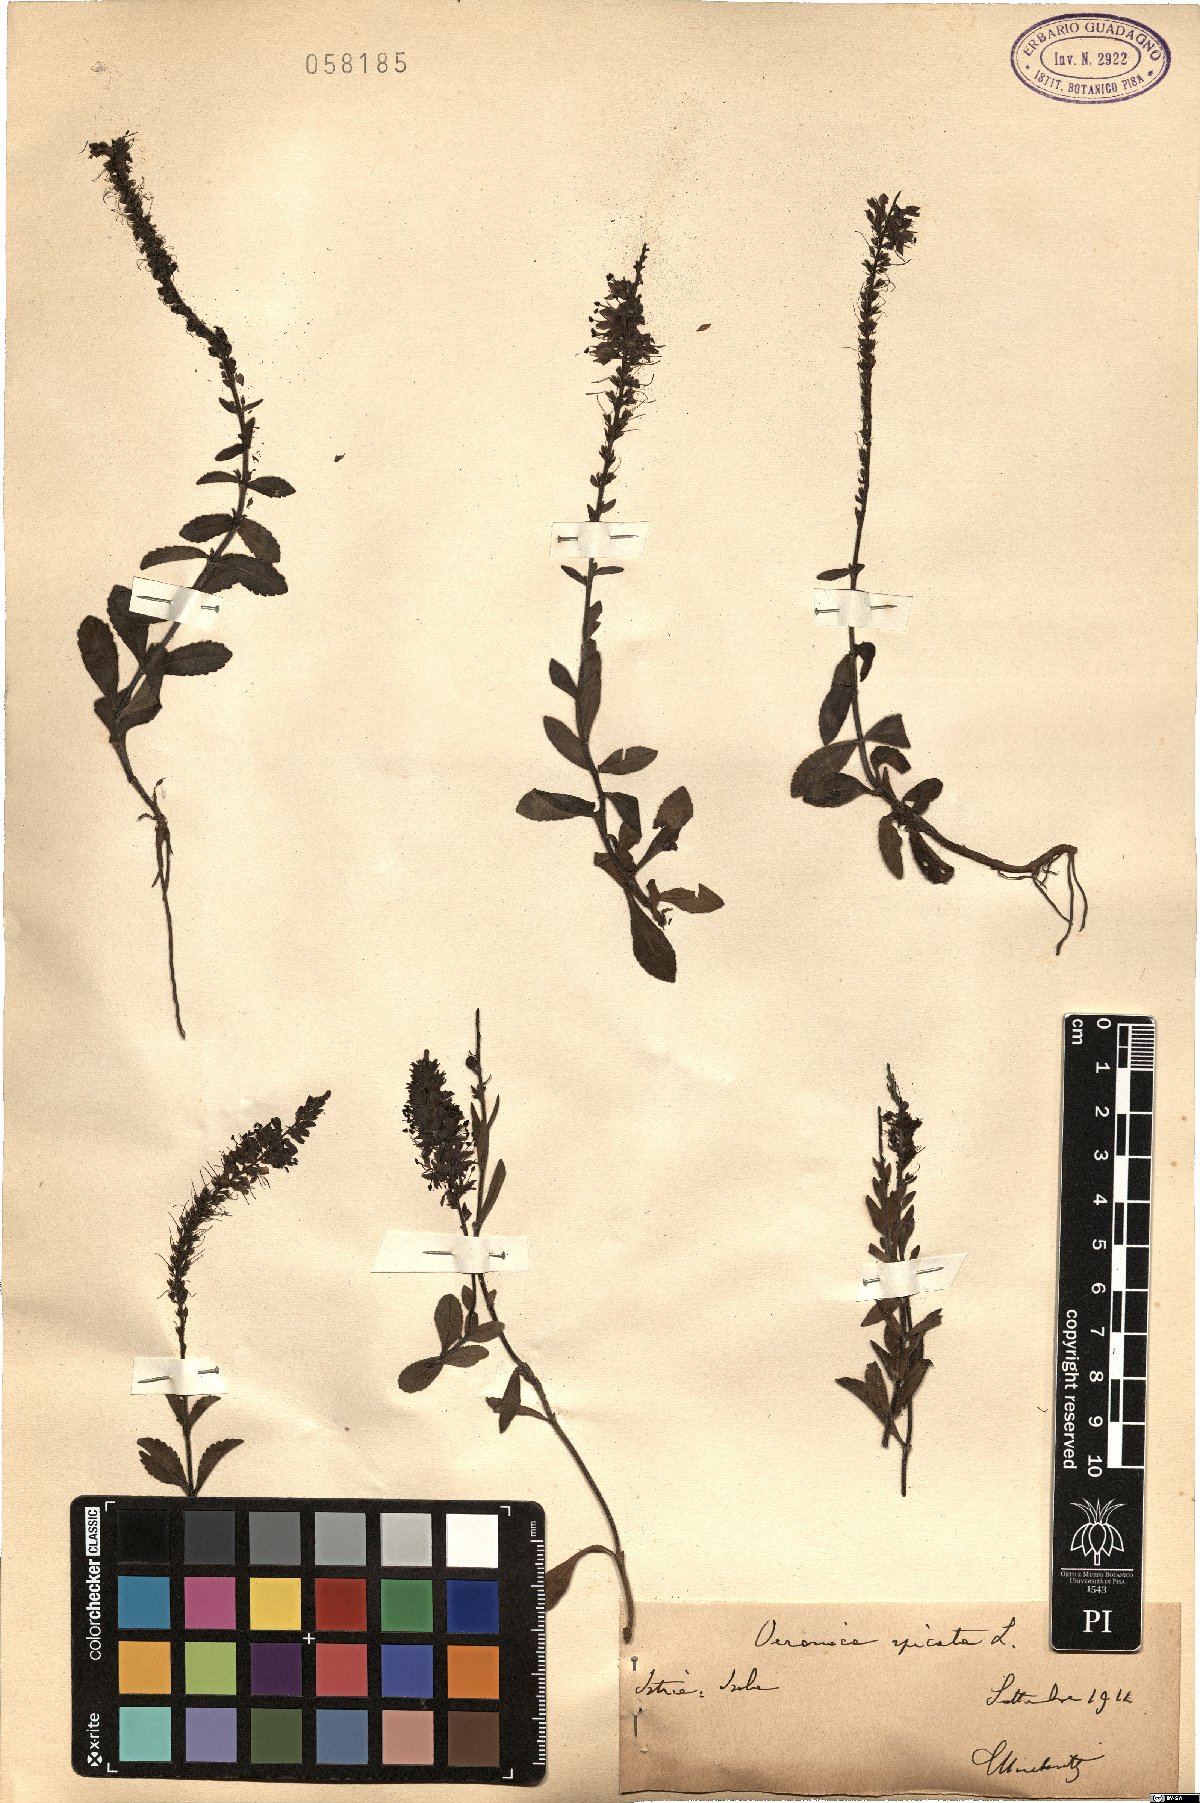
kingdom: Plantae
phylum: Tracheophyta
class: Magnoliopsida
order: Lamiales
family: Plantaginaceae
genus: Veronica
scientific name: Veronica spicata
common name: Spiked speedwell
